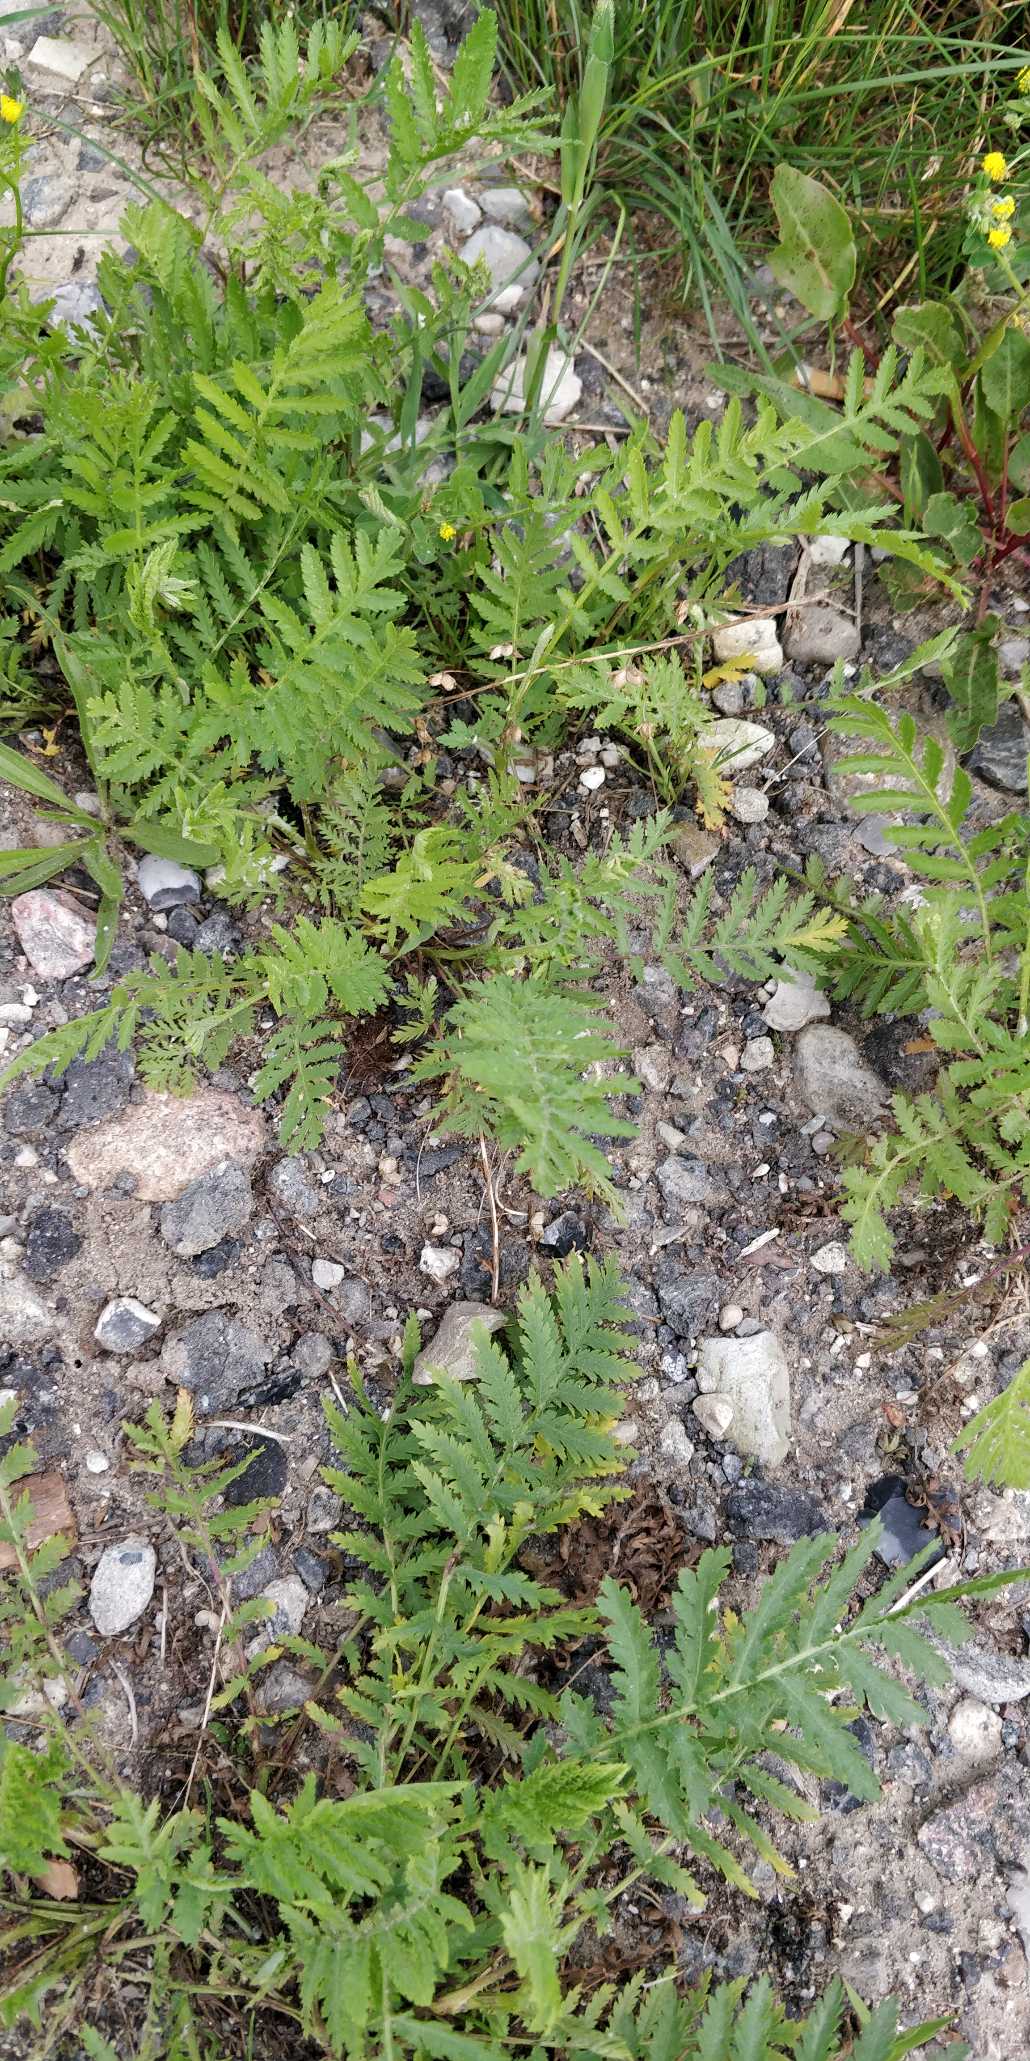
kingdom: Plantae
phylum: Tracheophyta
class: Magnoliopsida
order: Asterales
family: Asteraceae
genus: Tanacetum
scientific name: Tanacetum vulgare
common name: Rejnfan
